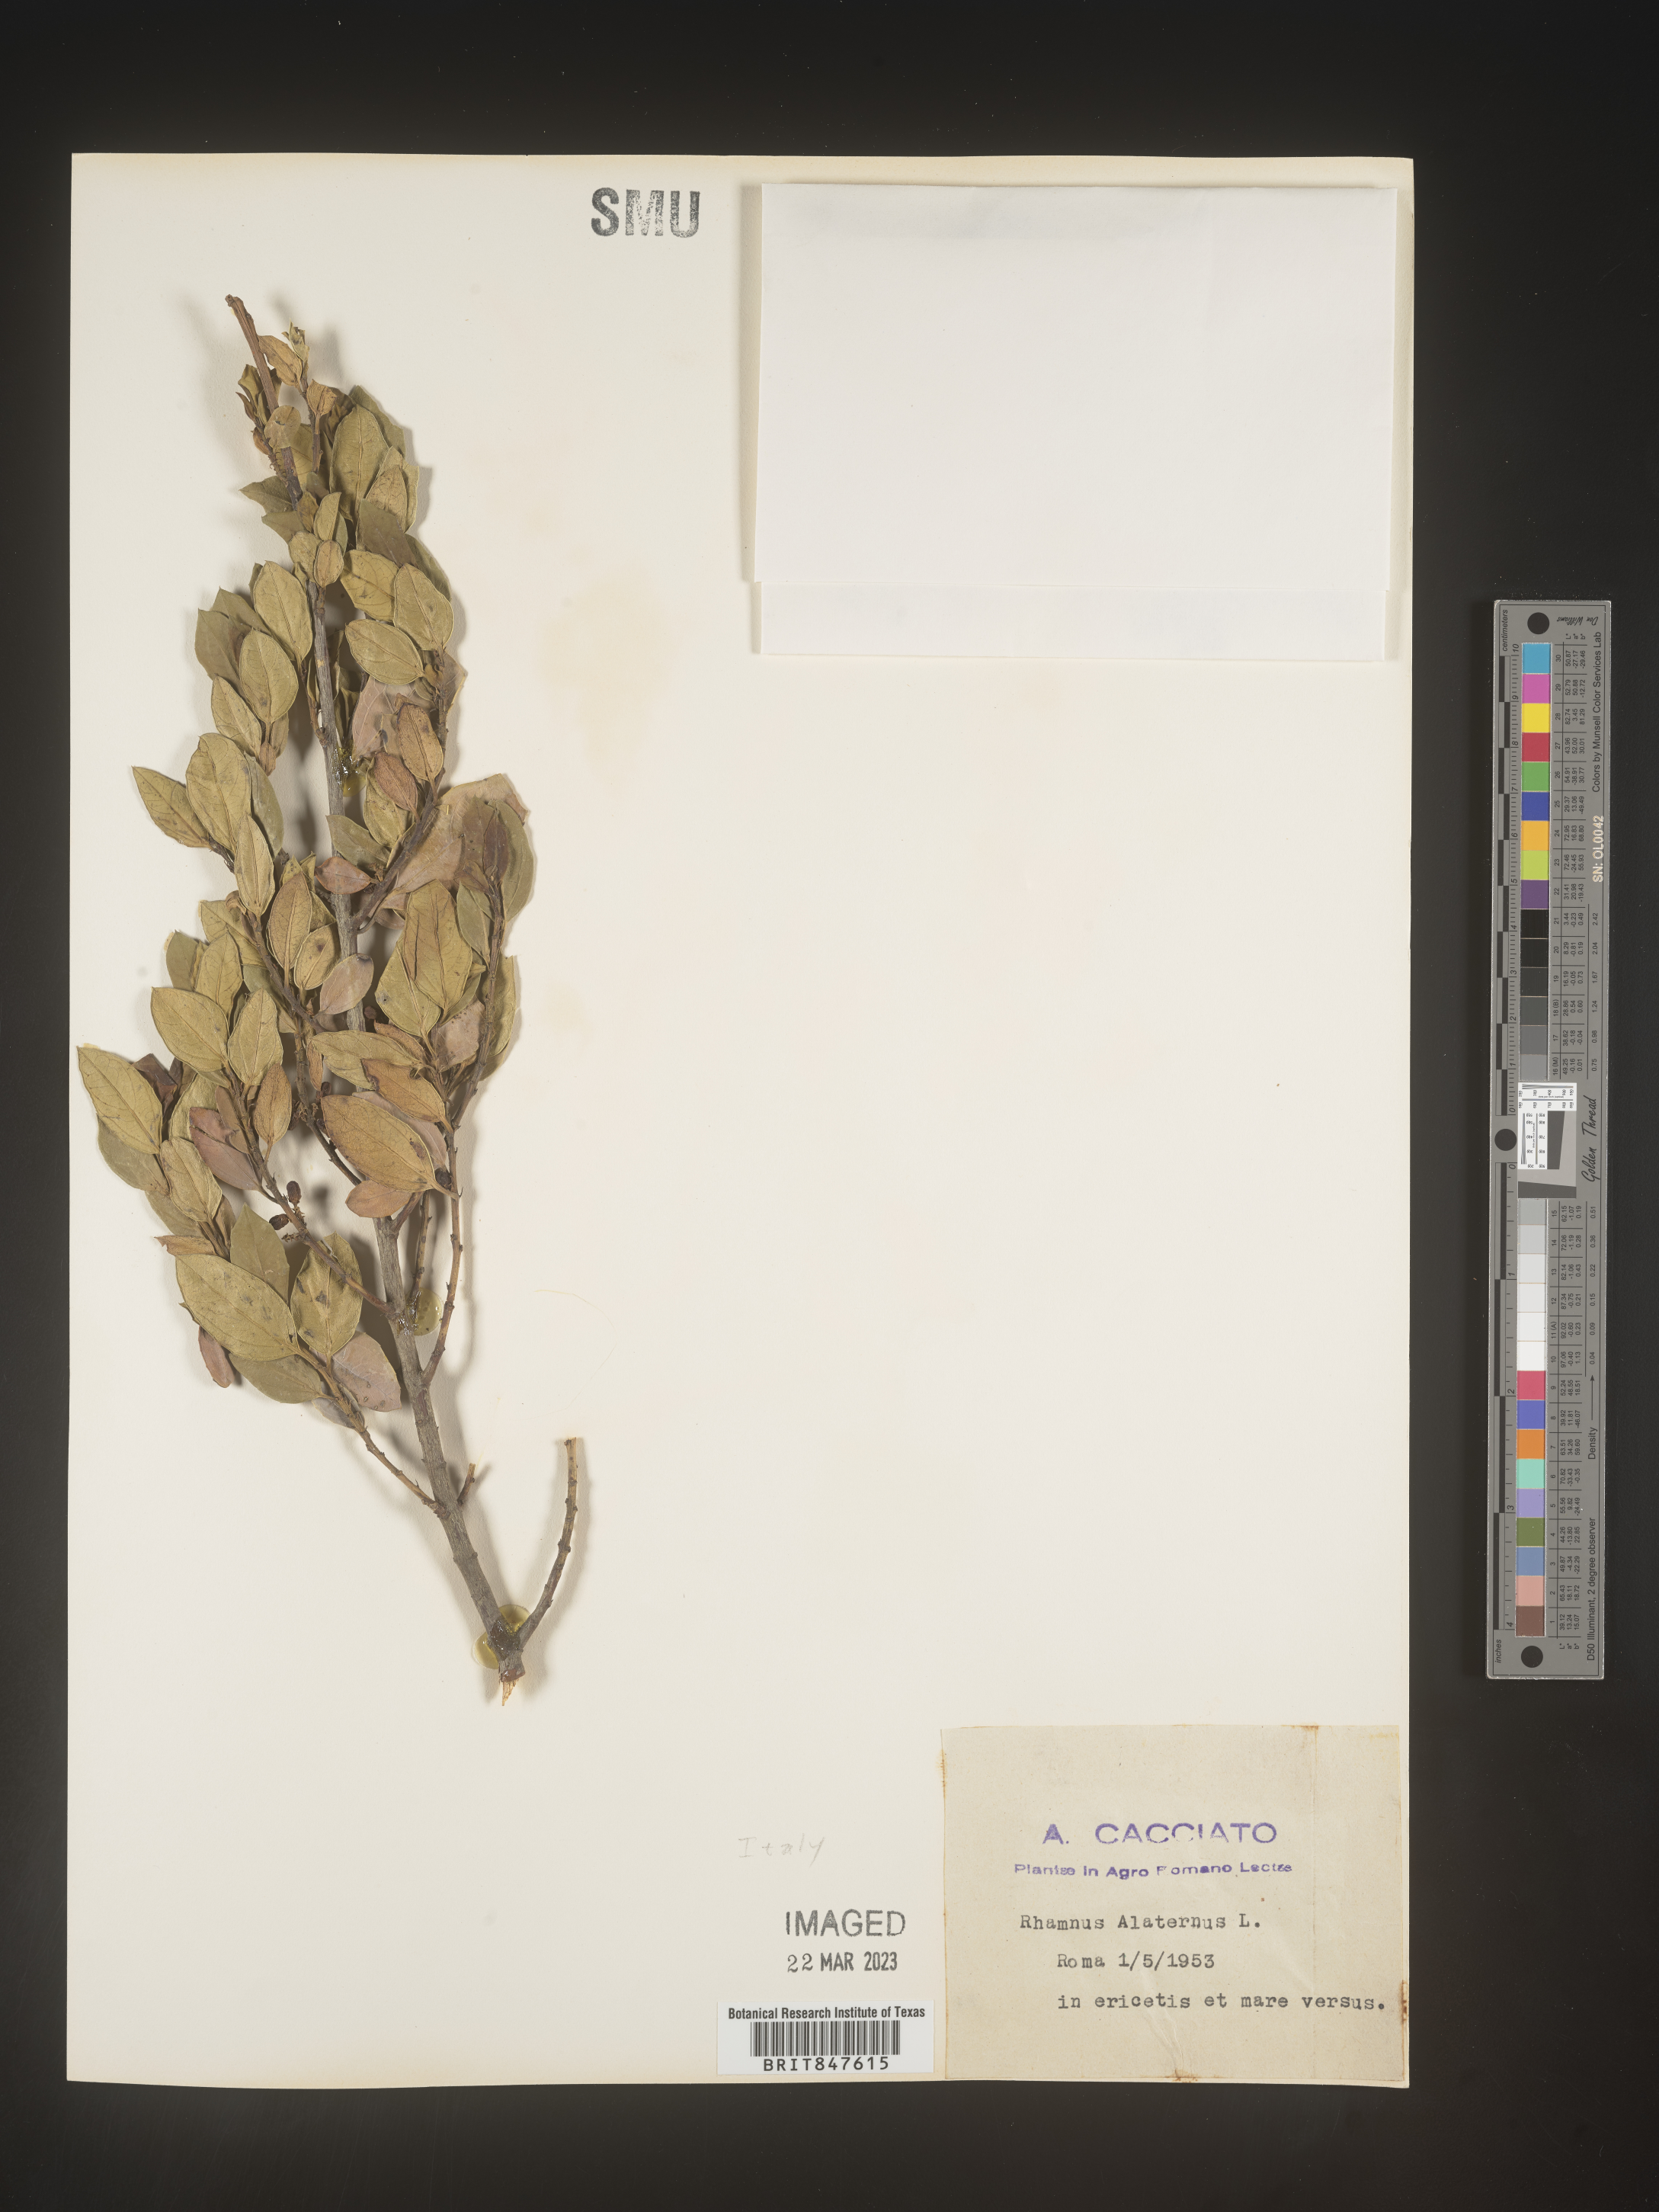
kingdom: Plantae
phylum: Tracheophyta
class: Magnoliopsida
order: Rosales
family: Rhamnaceae
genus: Rhamnus
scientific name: Rhamnus
